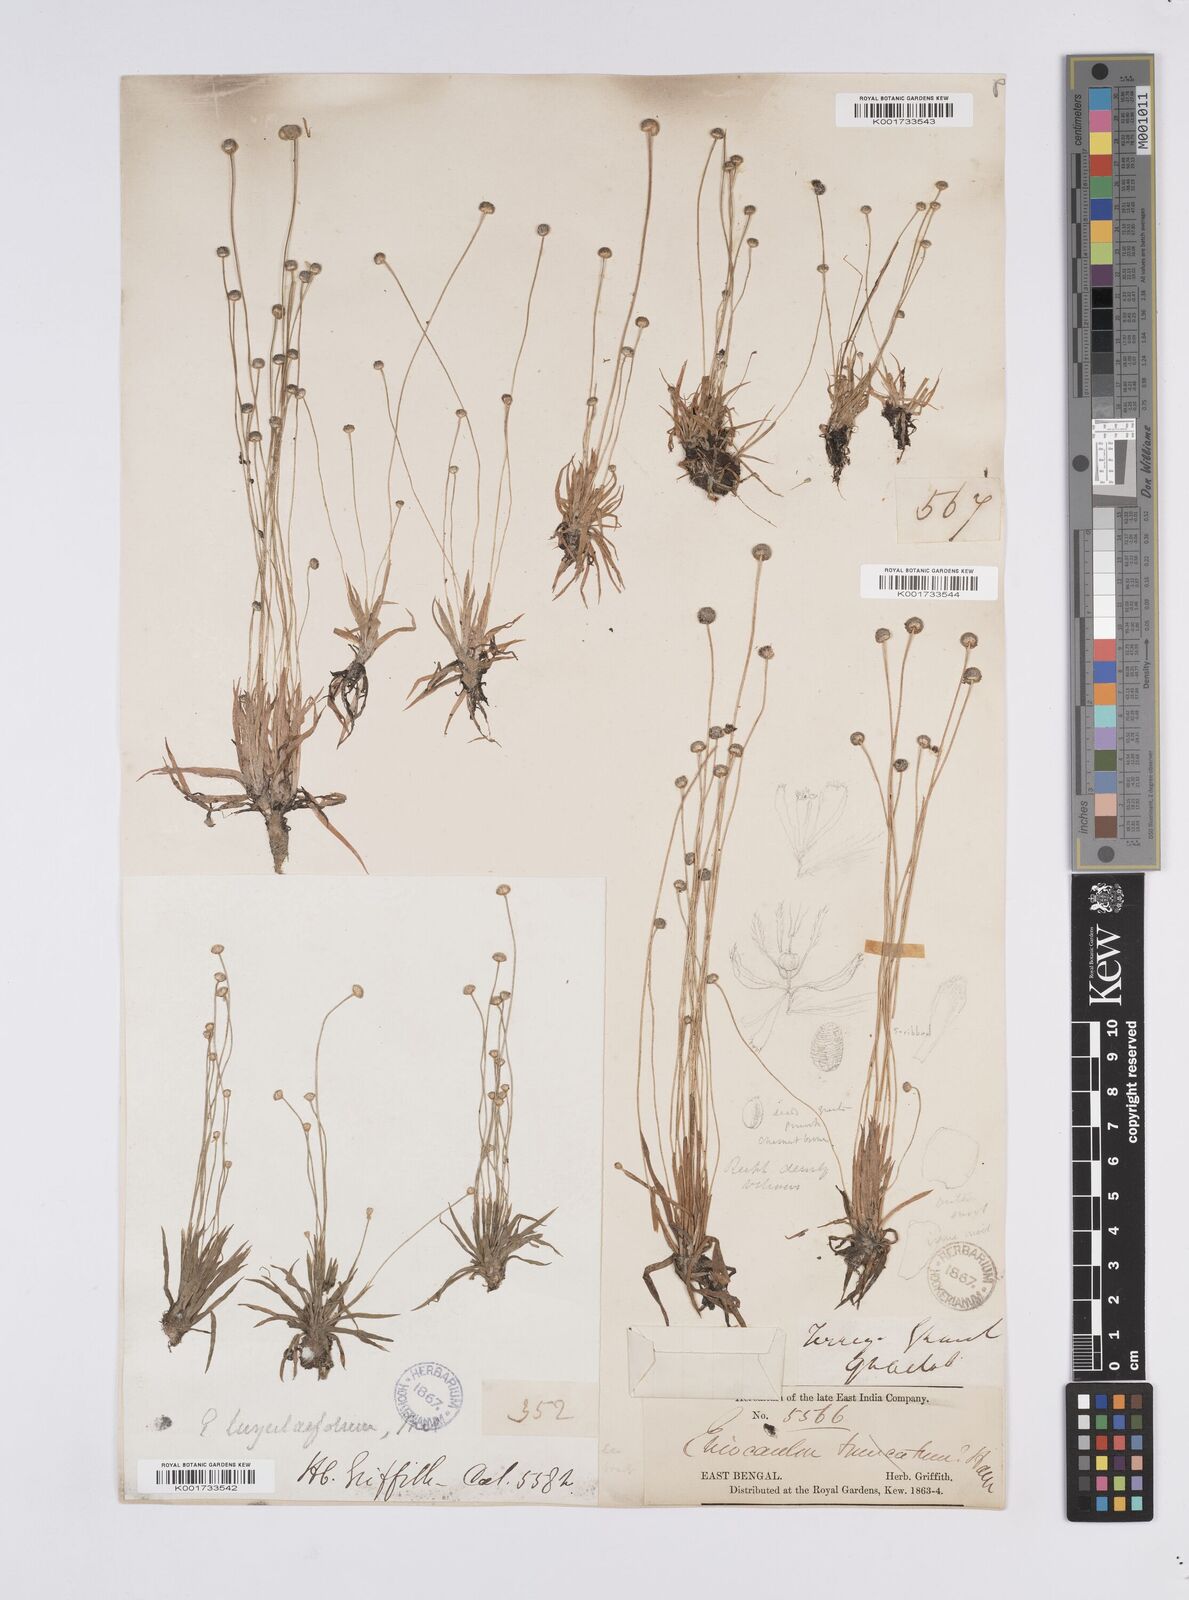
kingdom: Plantae
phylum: Tracheophyta
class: Liliopsida
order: Poales
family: Eriocaulaceae
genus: Eriocaulon
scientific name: Eriocaulon nepalense
